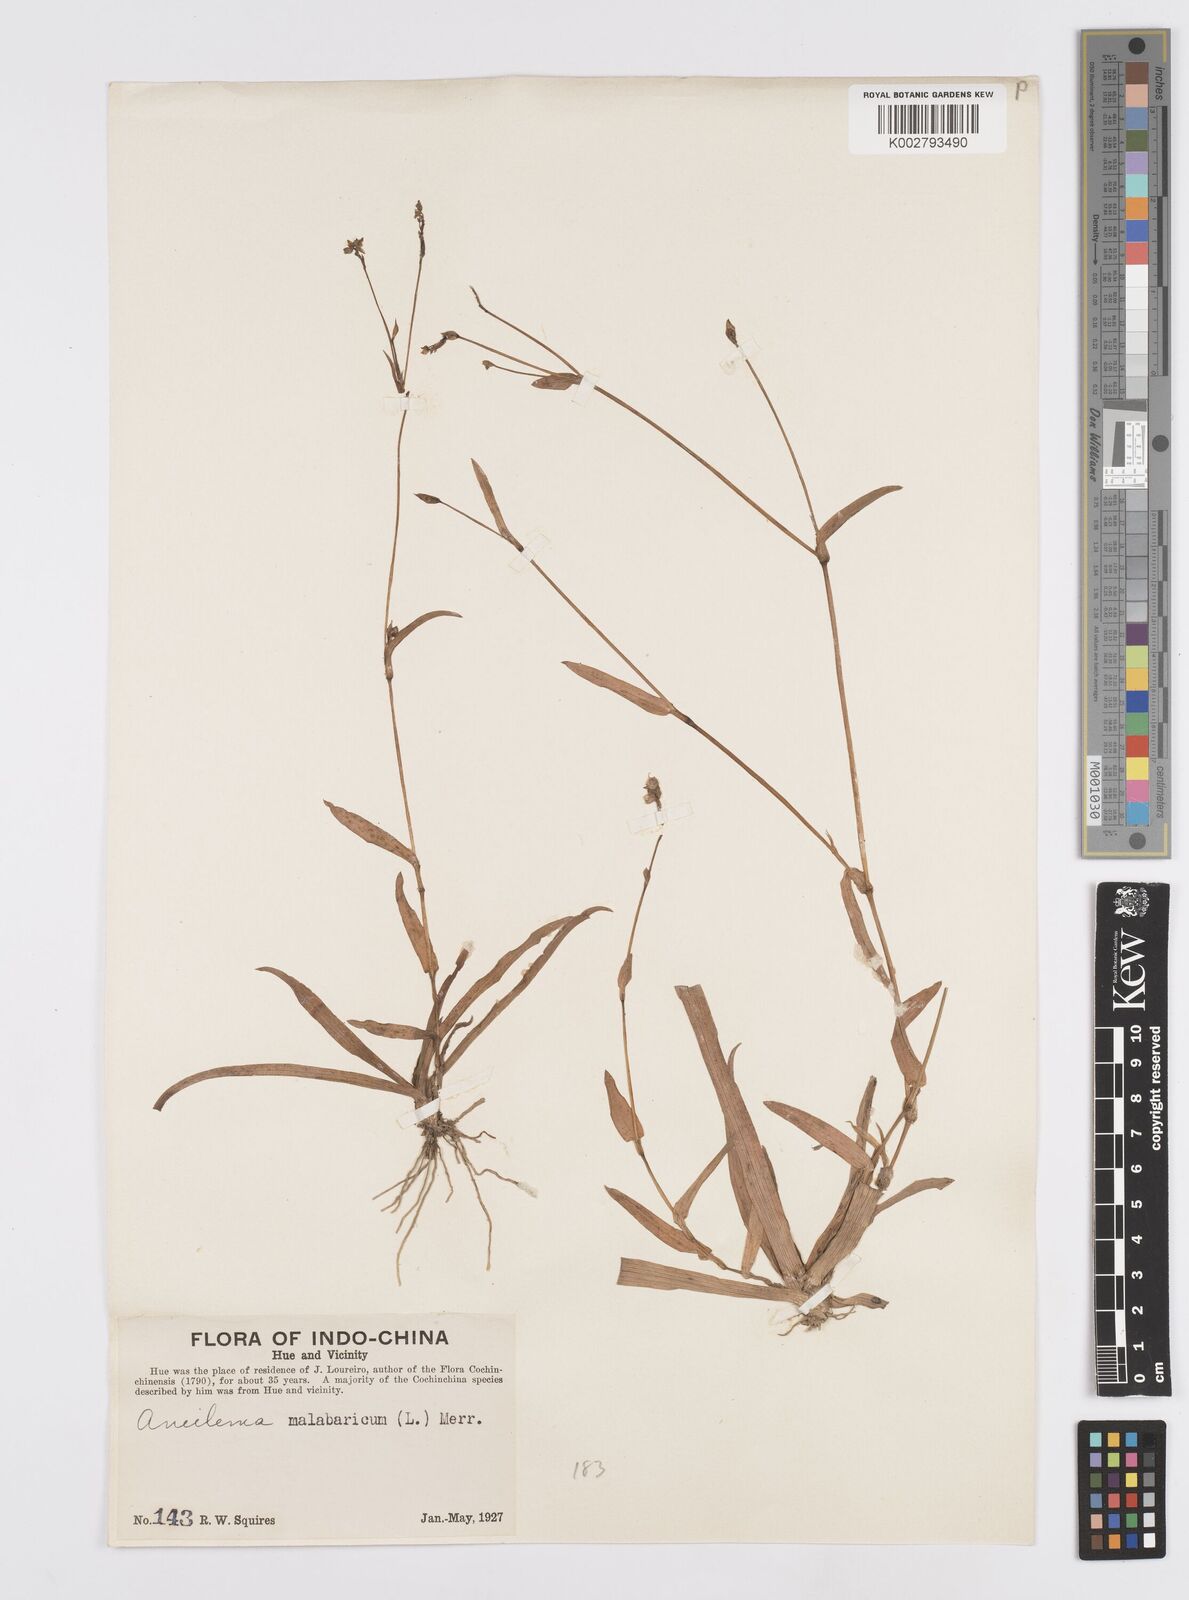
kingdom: Plantae
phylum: Tracheophyta
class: Liliopsida
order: Commelinales
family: Commelinaceae
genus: Murdannia
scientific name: Murdannia nudiflora
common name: Nakedstem dewflower
